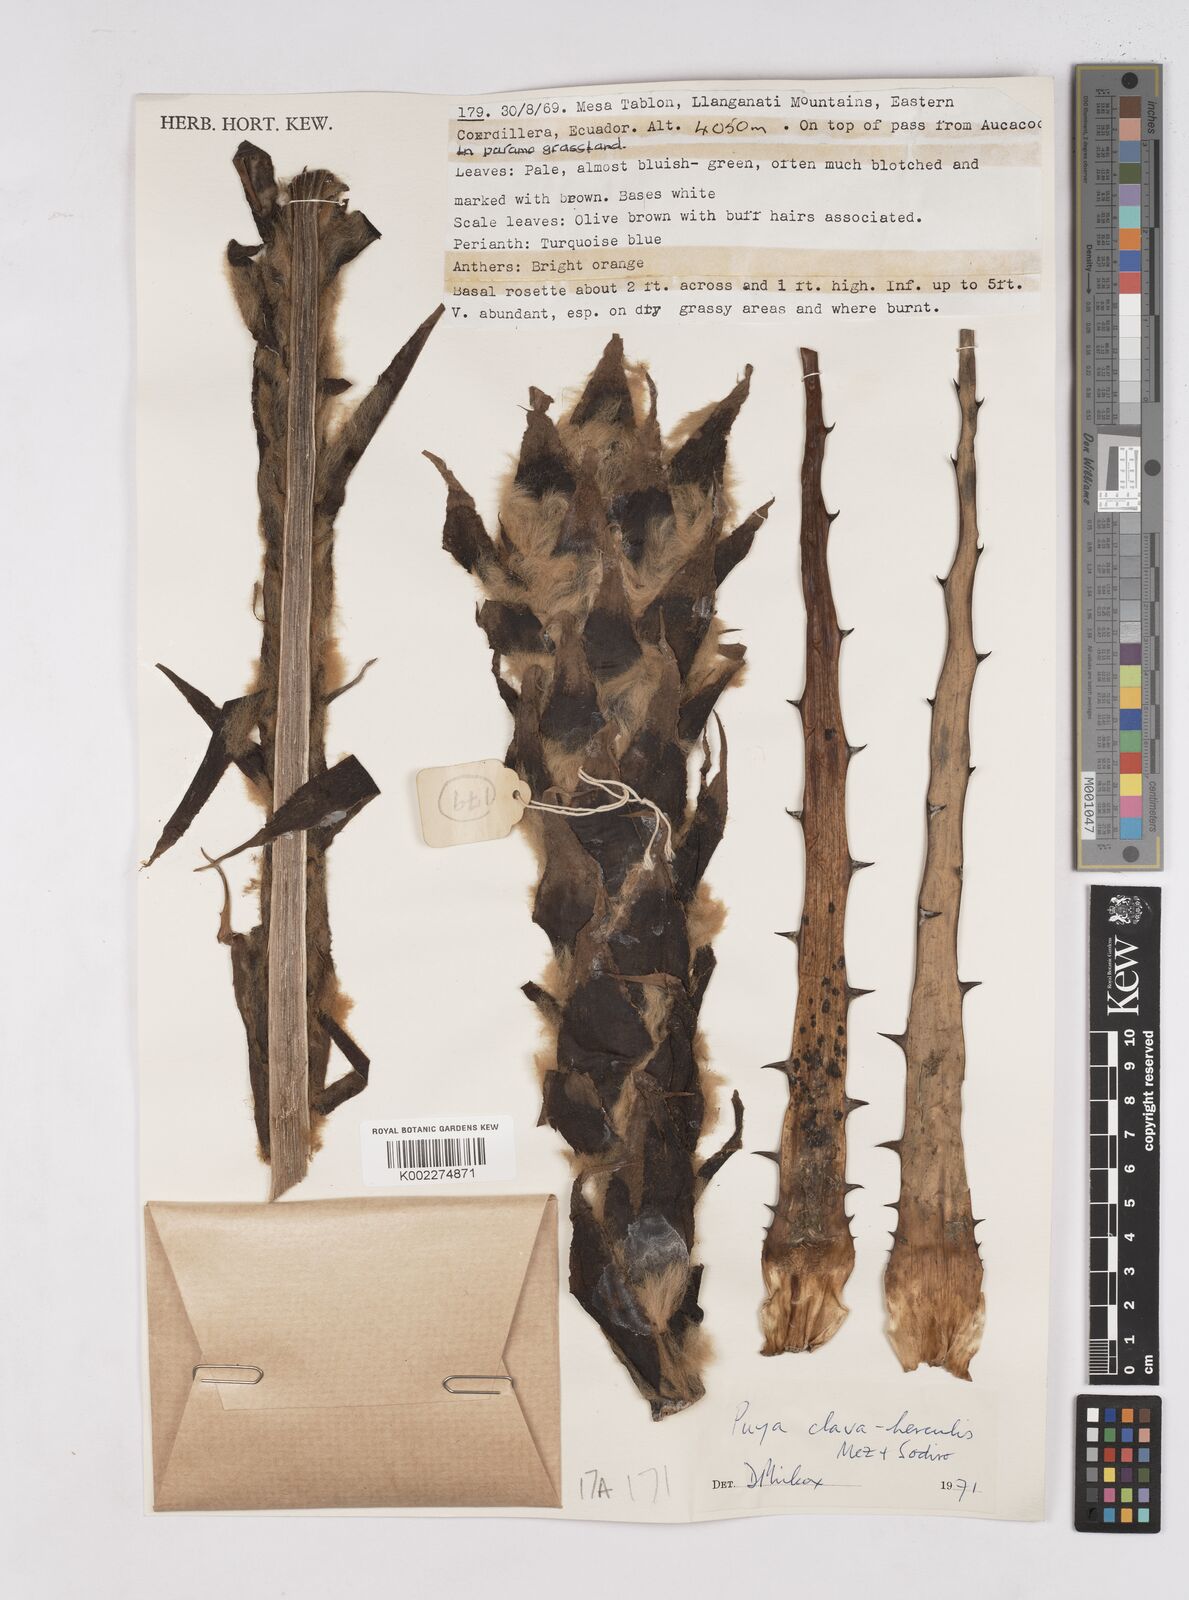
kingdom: Plantae
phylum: Tracheophyta
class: Liliopsida
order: Poales
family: Bromeliaceae
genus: Puya
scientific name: Puya clava-herculis
